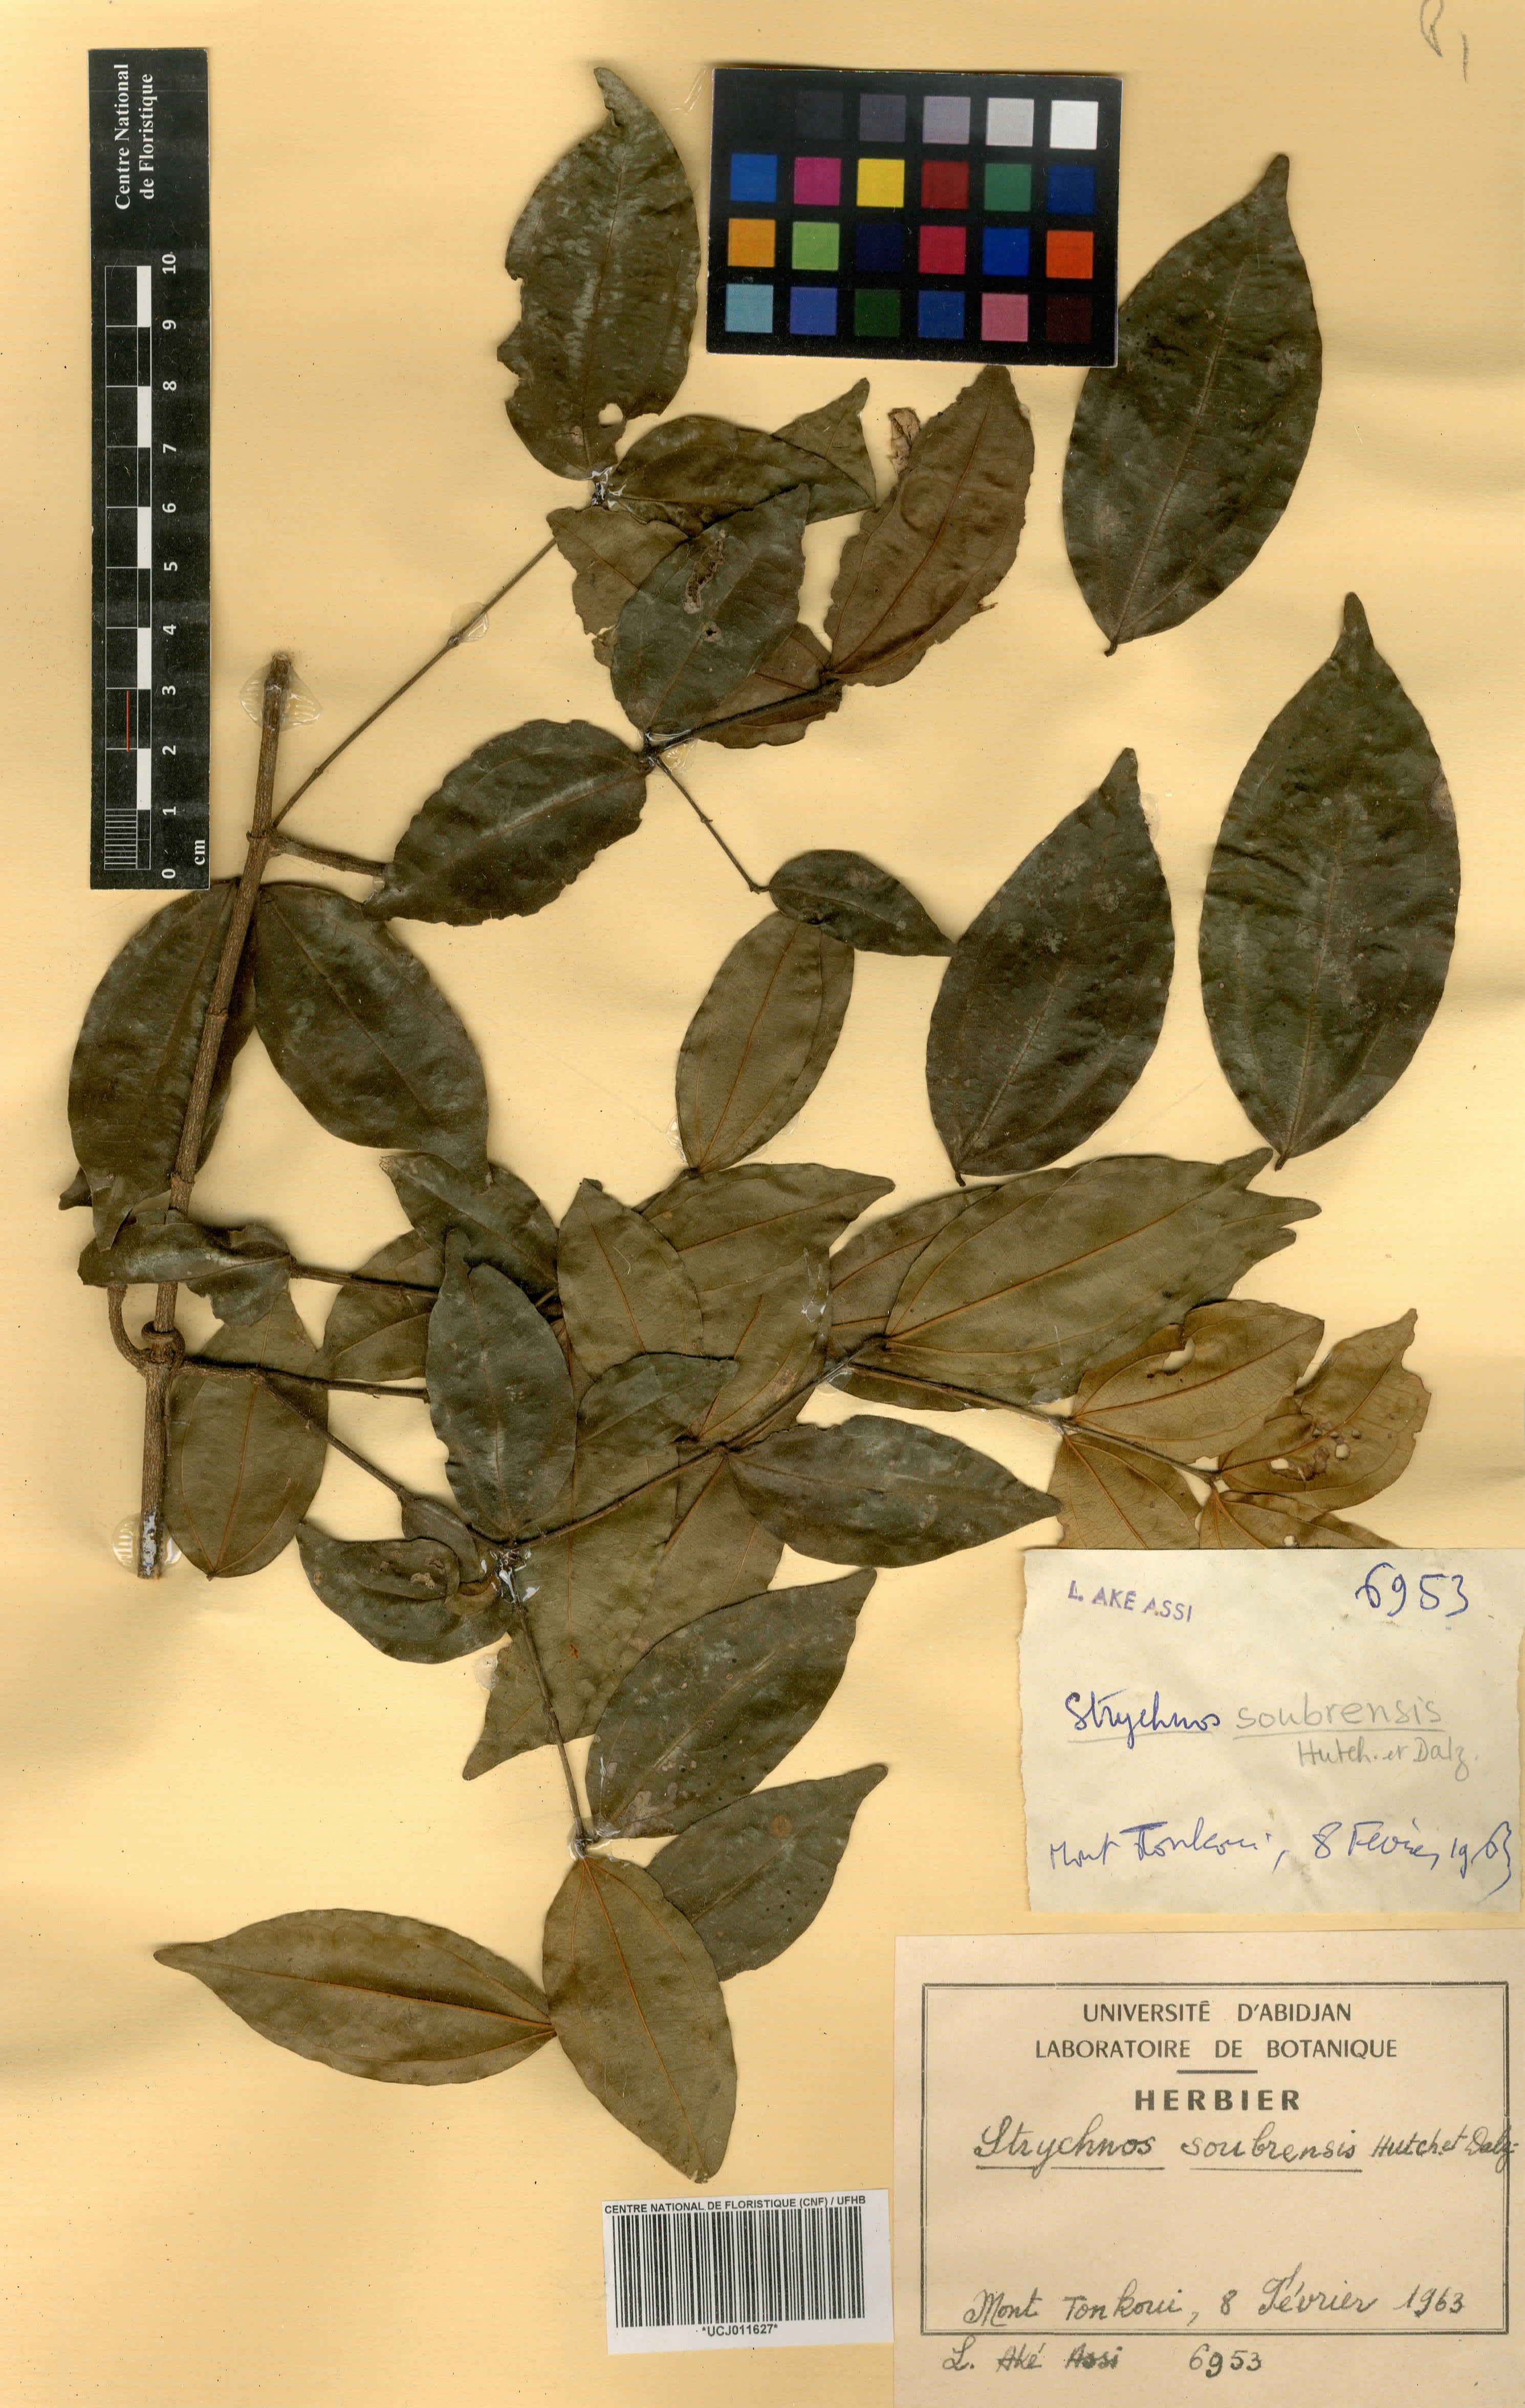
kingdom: Plantae
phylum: Tracheophyta
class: Magnoliopsida
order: Gentianales
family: Loganiaceae
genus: Strychnos
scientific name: Strychnos soubrensis
